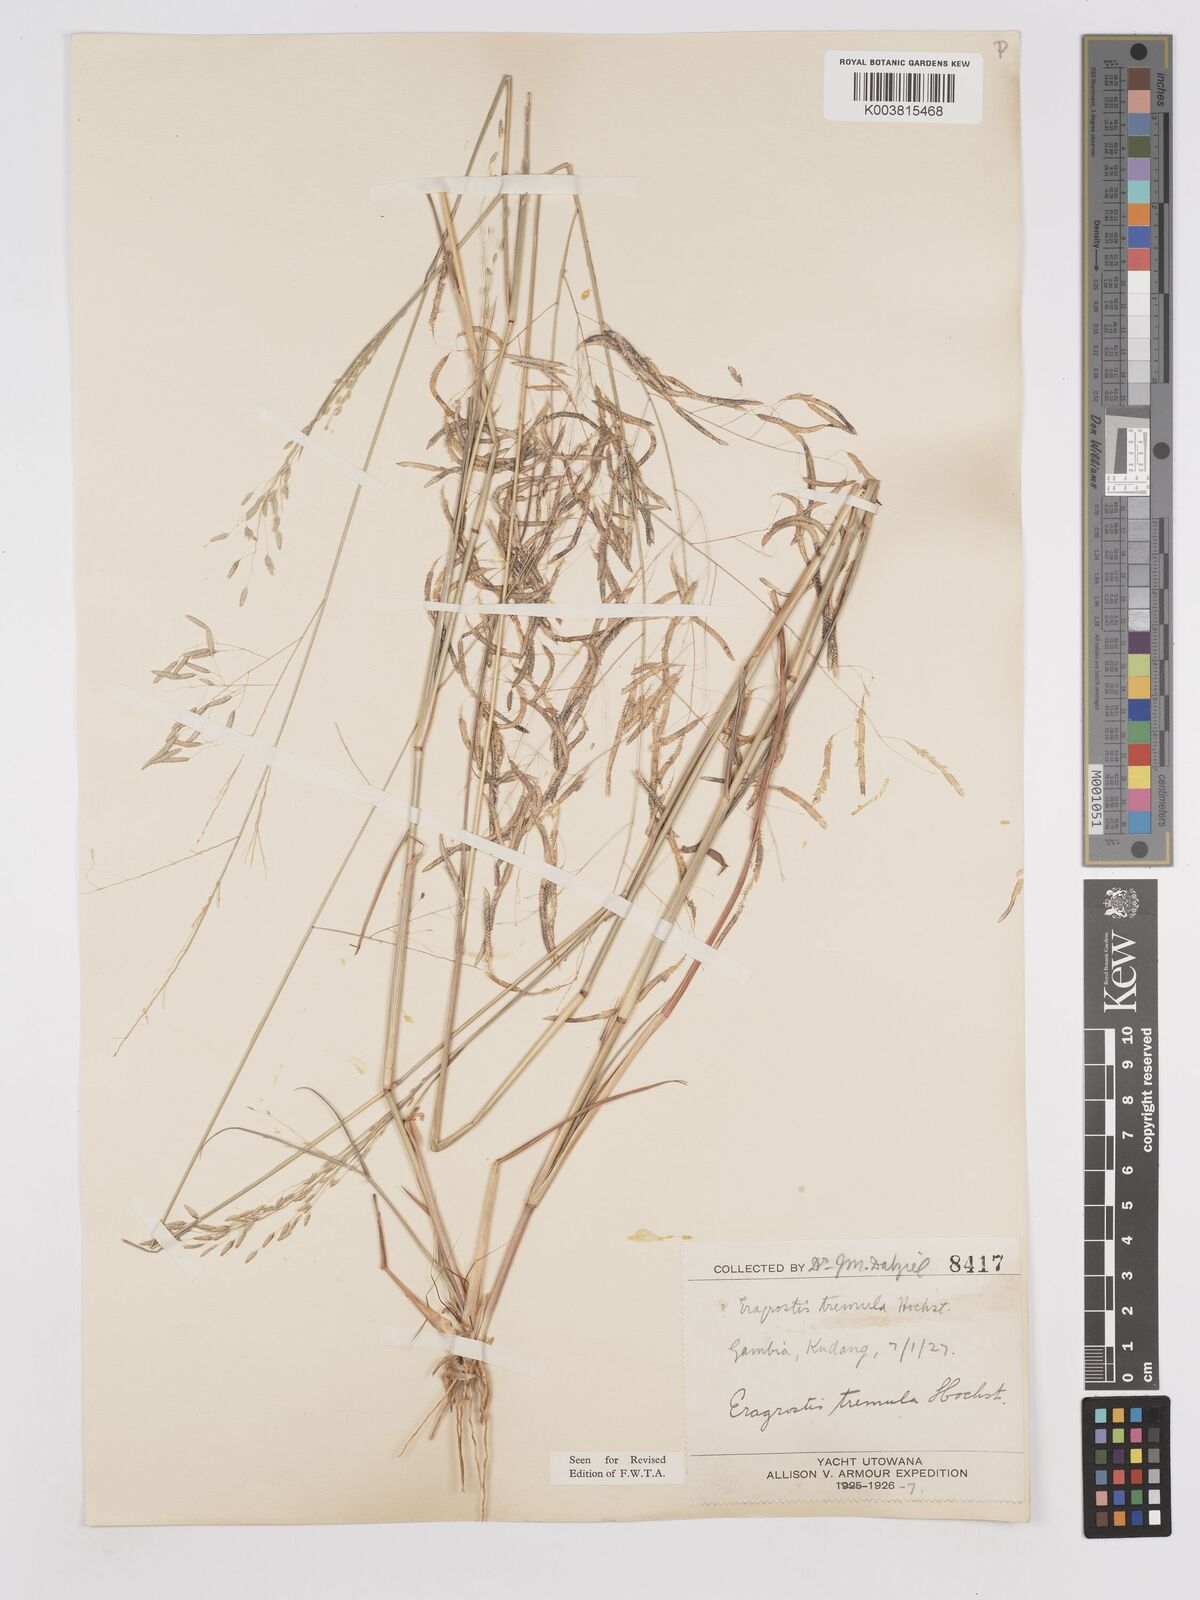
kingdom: Plantae
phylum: Tracheophyta
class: Liliopsida
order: Poales
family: Poaceae
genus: Eragrostis
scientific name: Eragrostis tremula
